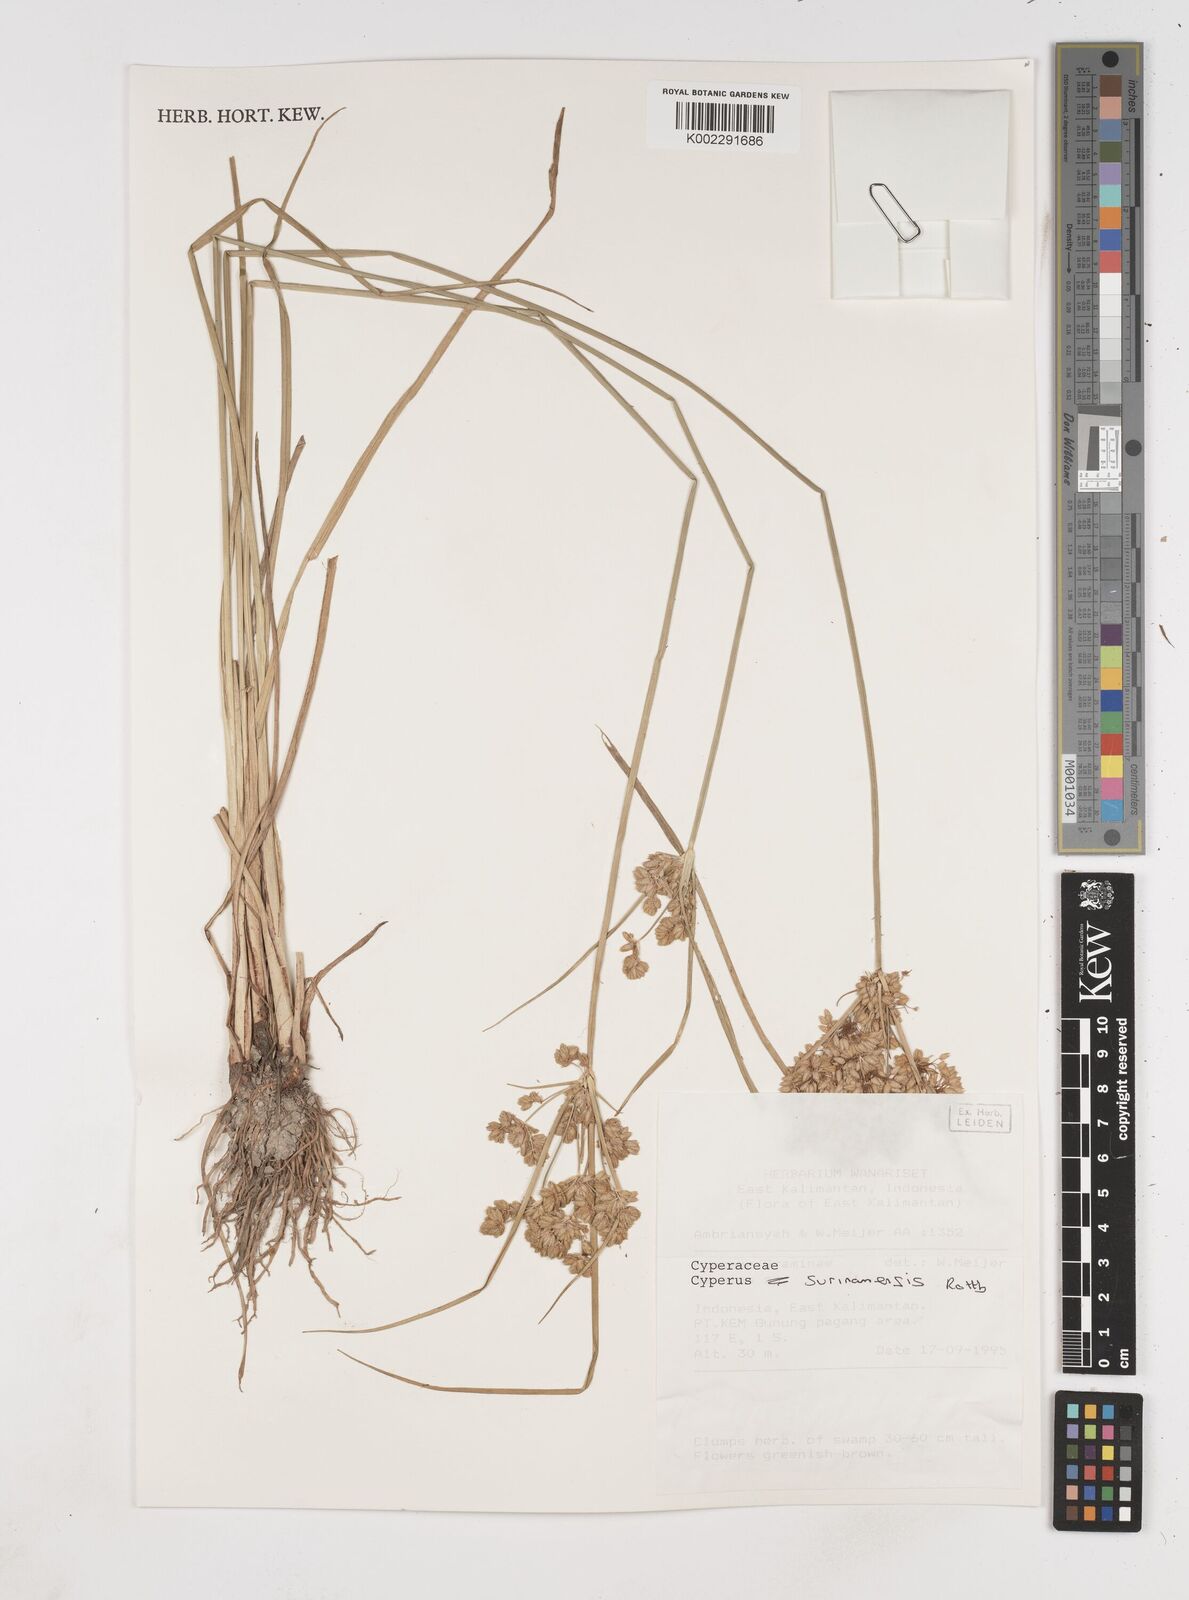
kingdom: Plantae
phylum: Tracheophyta
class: Liliopsida
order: Poales
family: Cyperaceae
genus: Cyperus
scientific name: Cyperus surinamensis
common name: Tropical flat sedge
